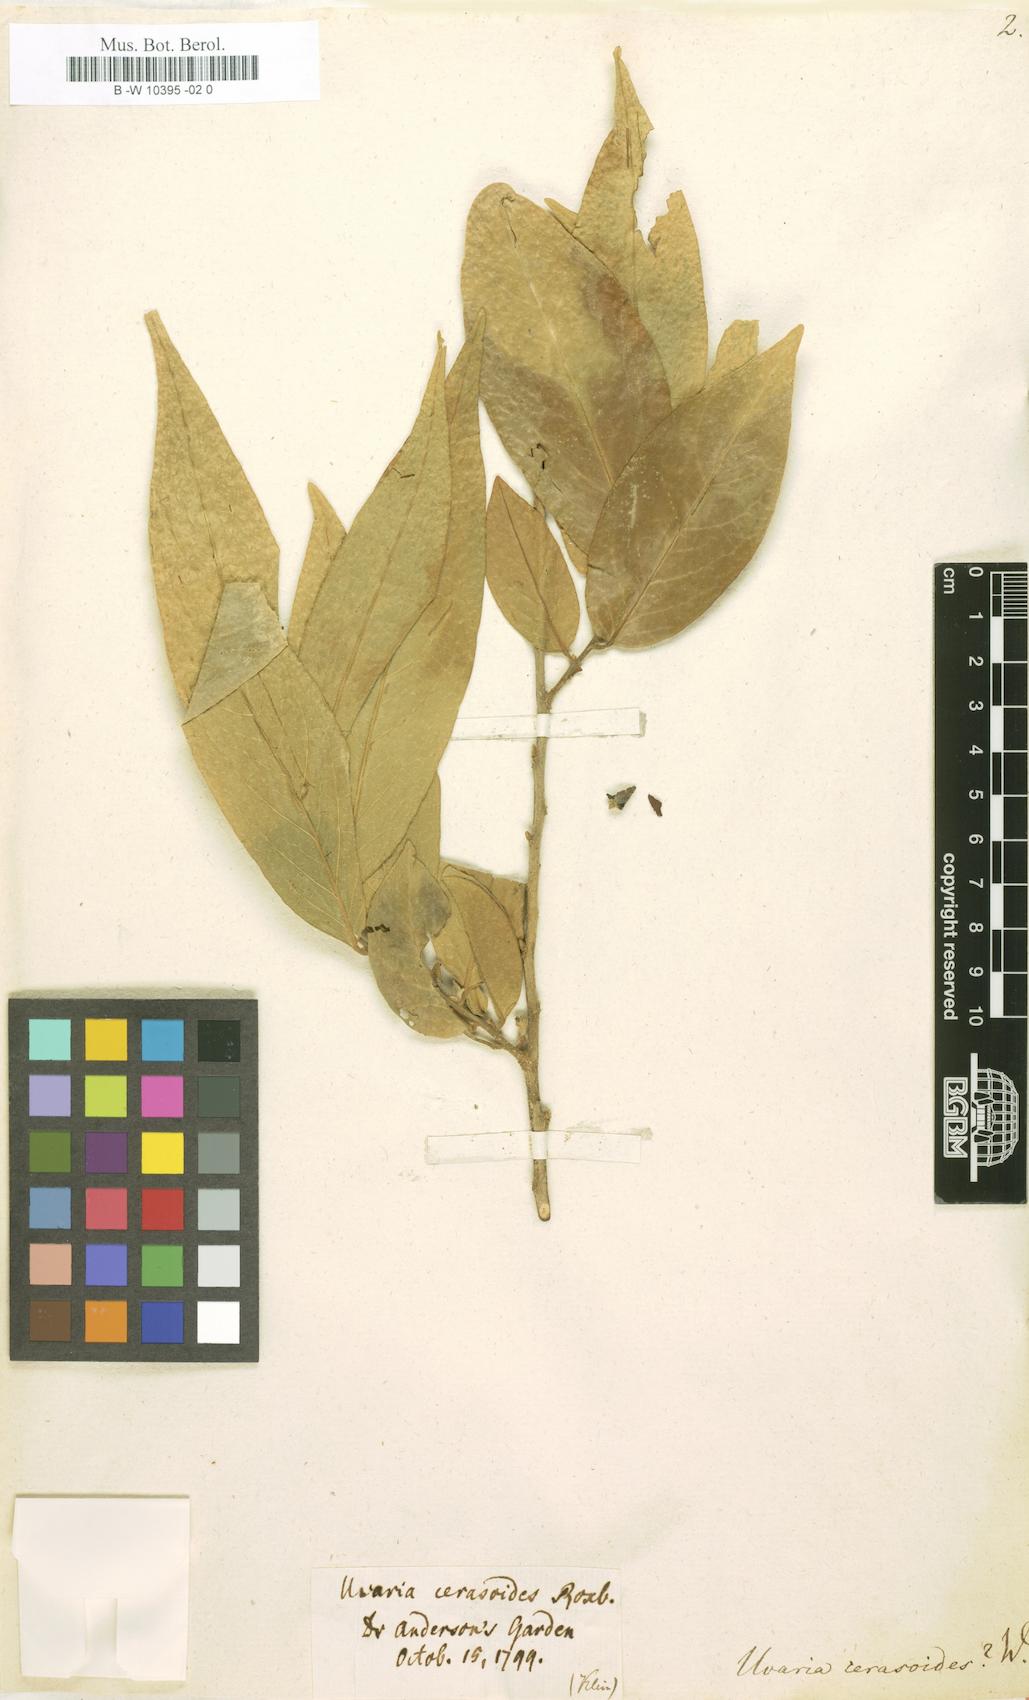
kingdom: Plantae
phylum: Tracheophyta
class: Magnoliopsida
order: Magnoliales
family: Annonaceae
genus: Hubera
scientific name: Hubera cerasoides
